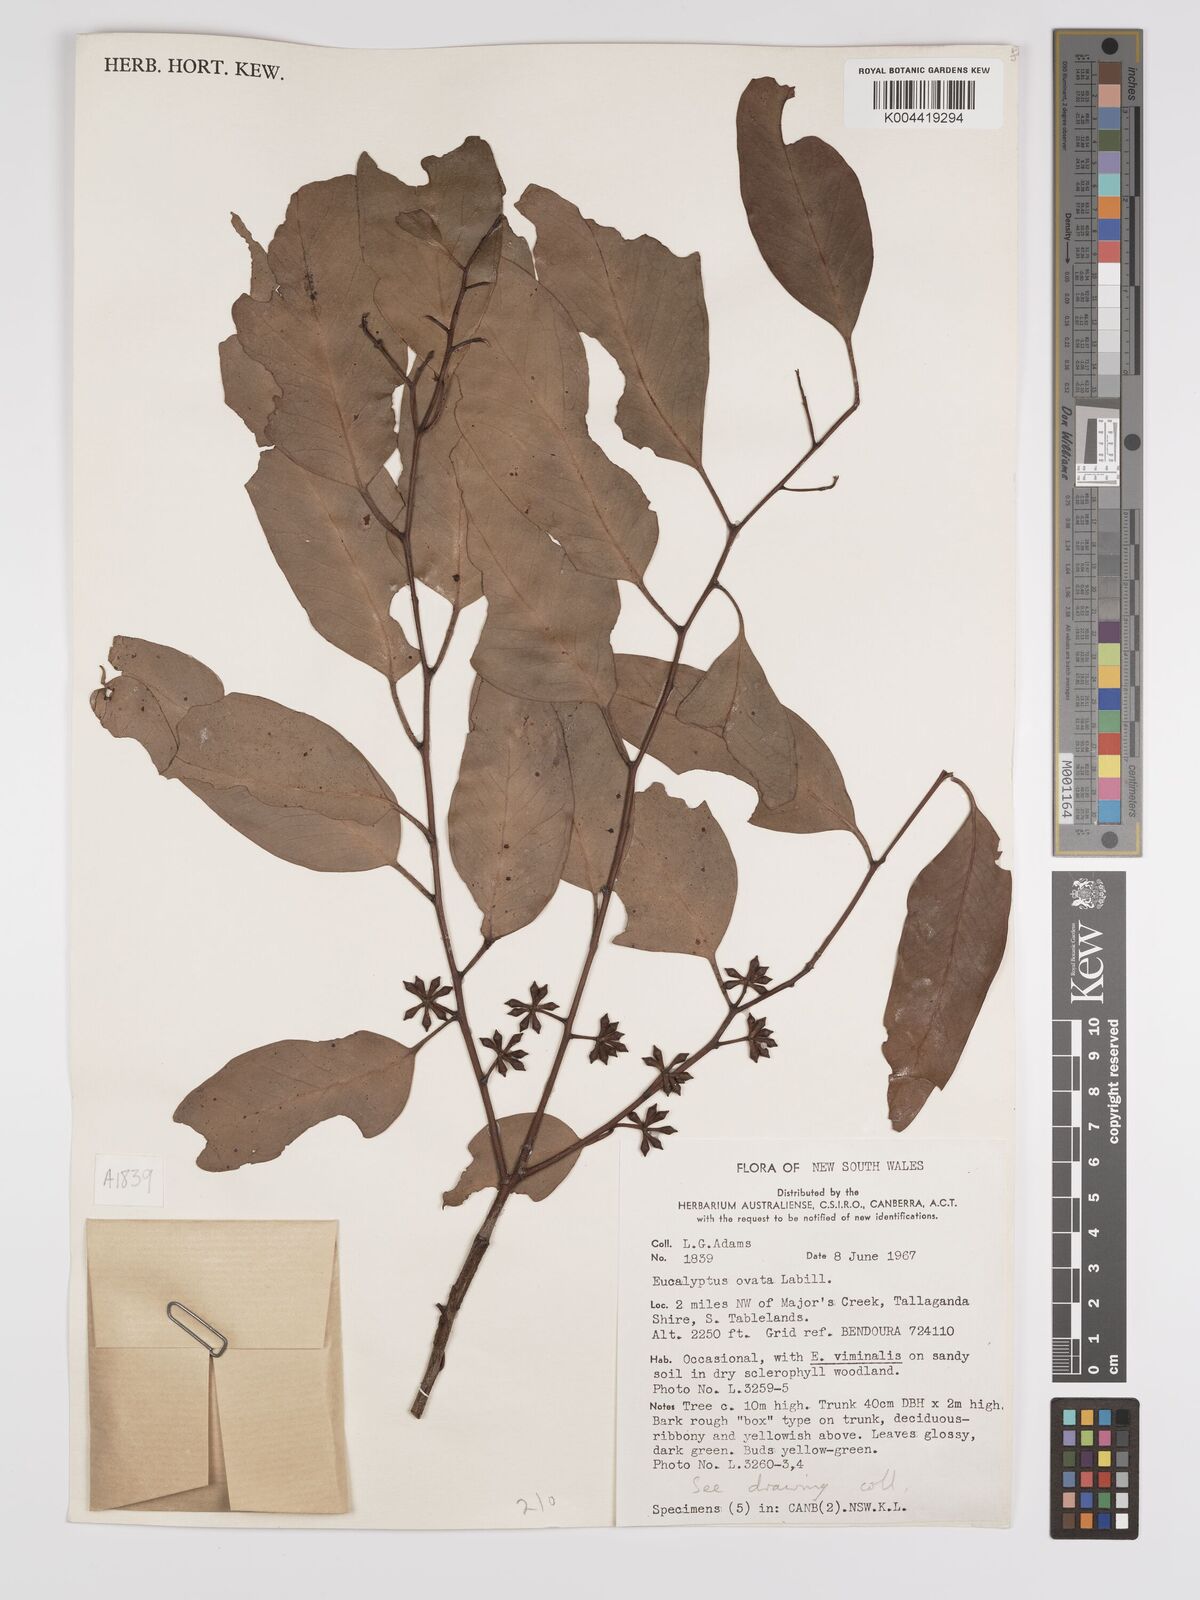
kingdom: Plantae
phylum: Tracheophyta
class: Magnoliopsida
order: Myrtales
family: Myrtaceae
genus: Eucalyptus
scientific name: Eucalyptus ovata
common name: Black-gum
